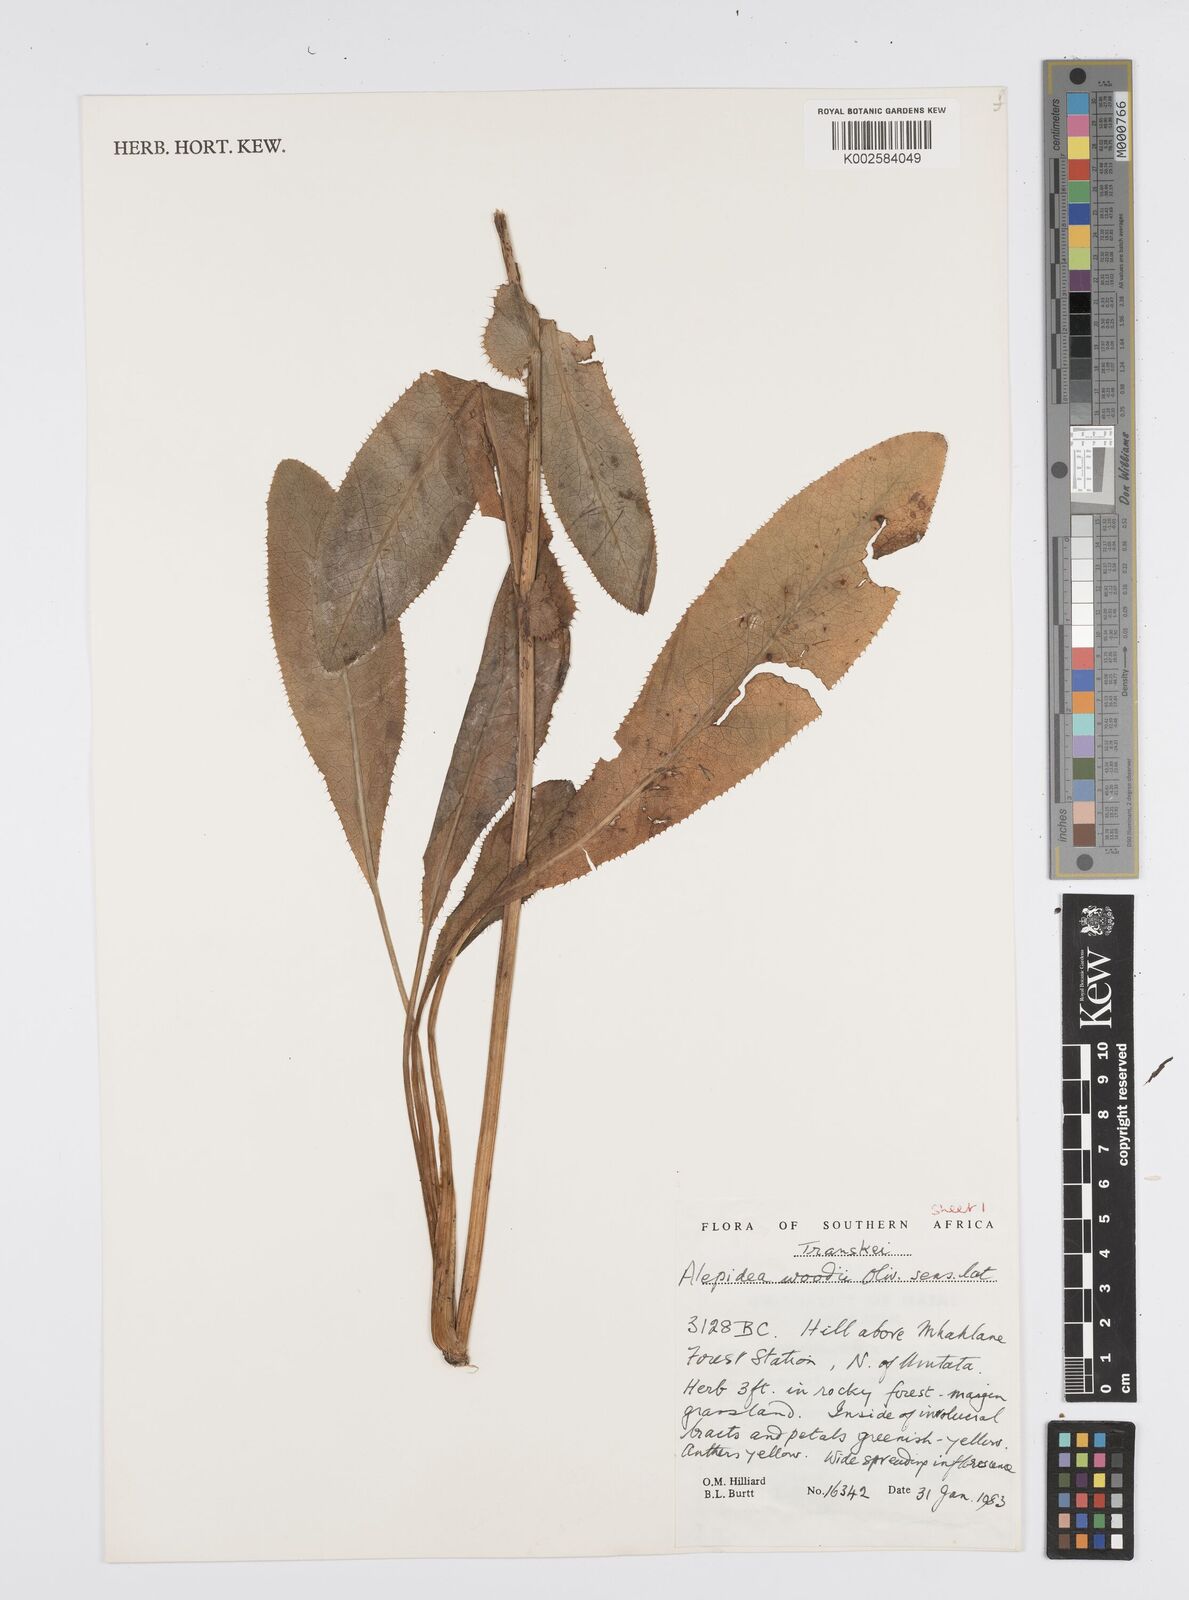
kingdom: Plantae
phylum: Tracheophyta
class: Magnoliopsida
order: Apiales
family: Apiaceae
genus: Alepidea
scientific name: Alepidea woodii
